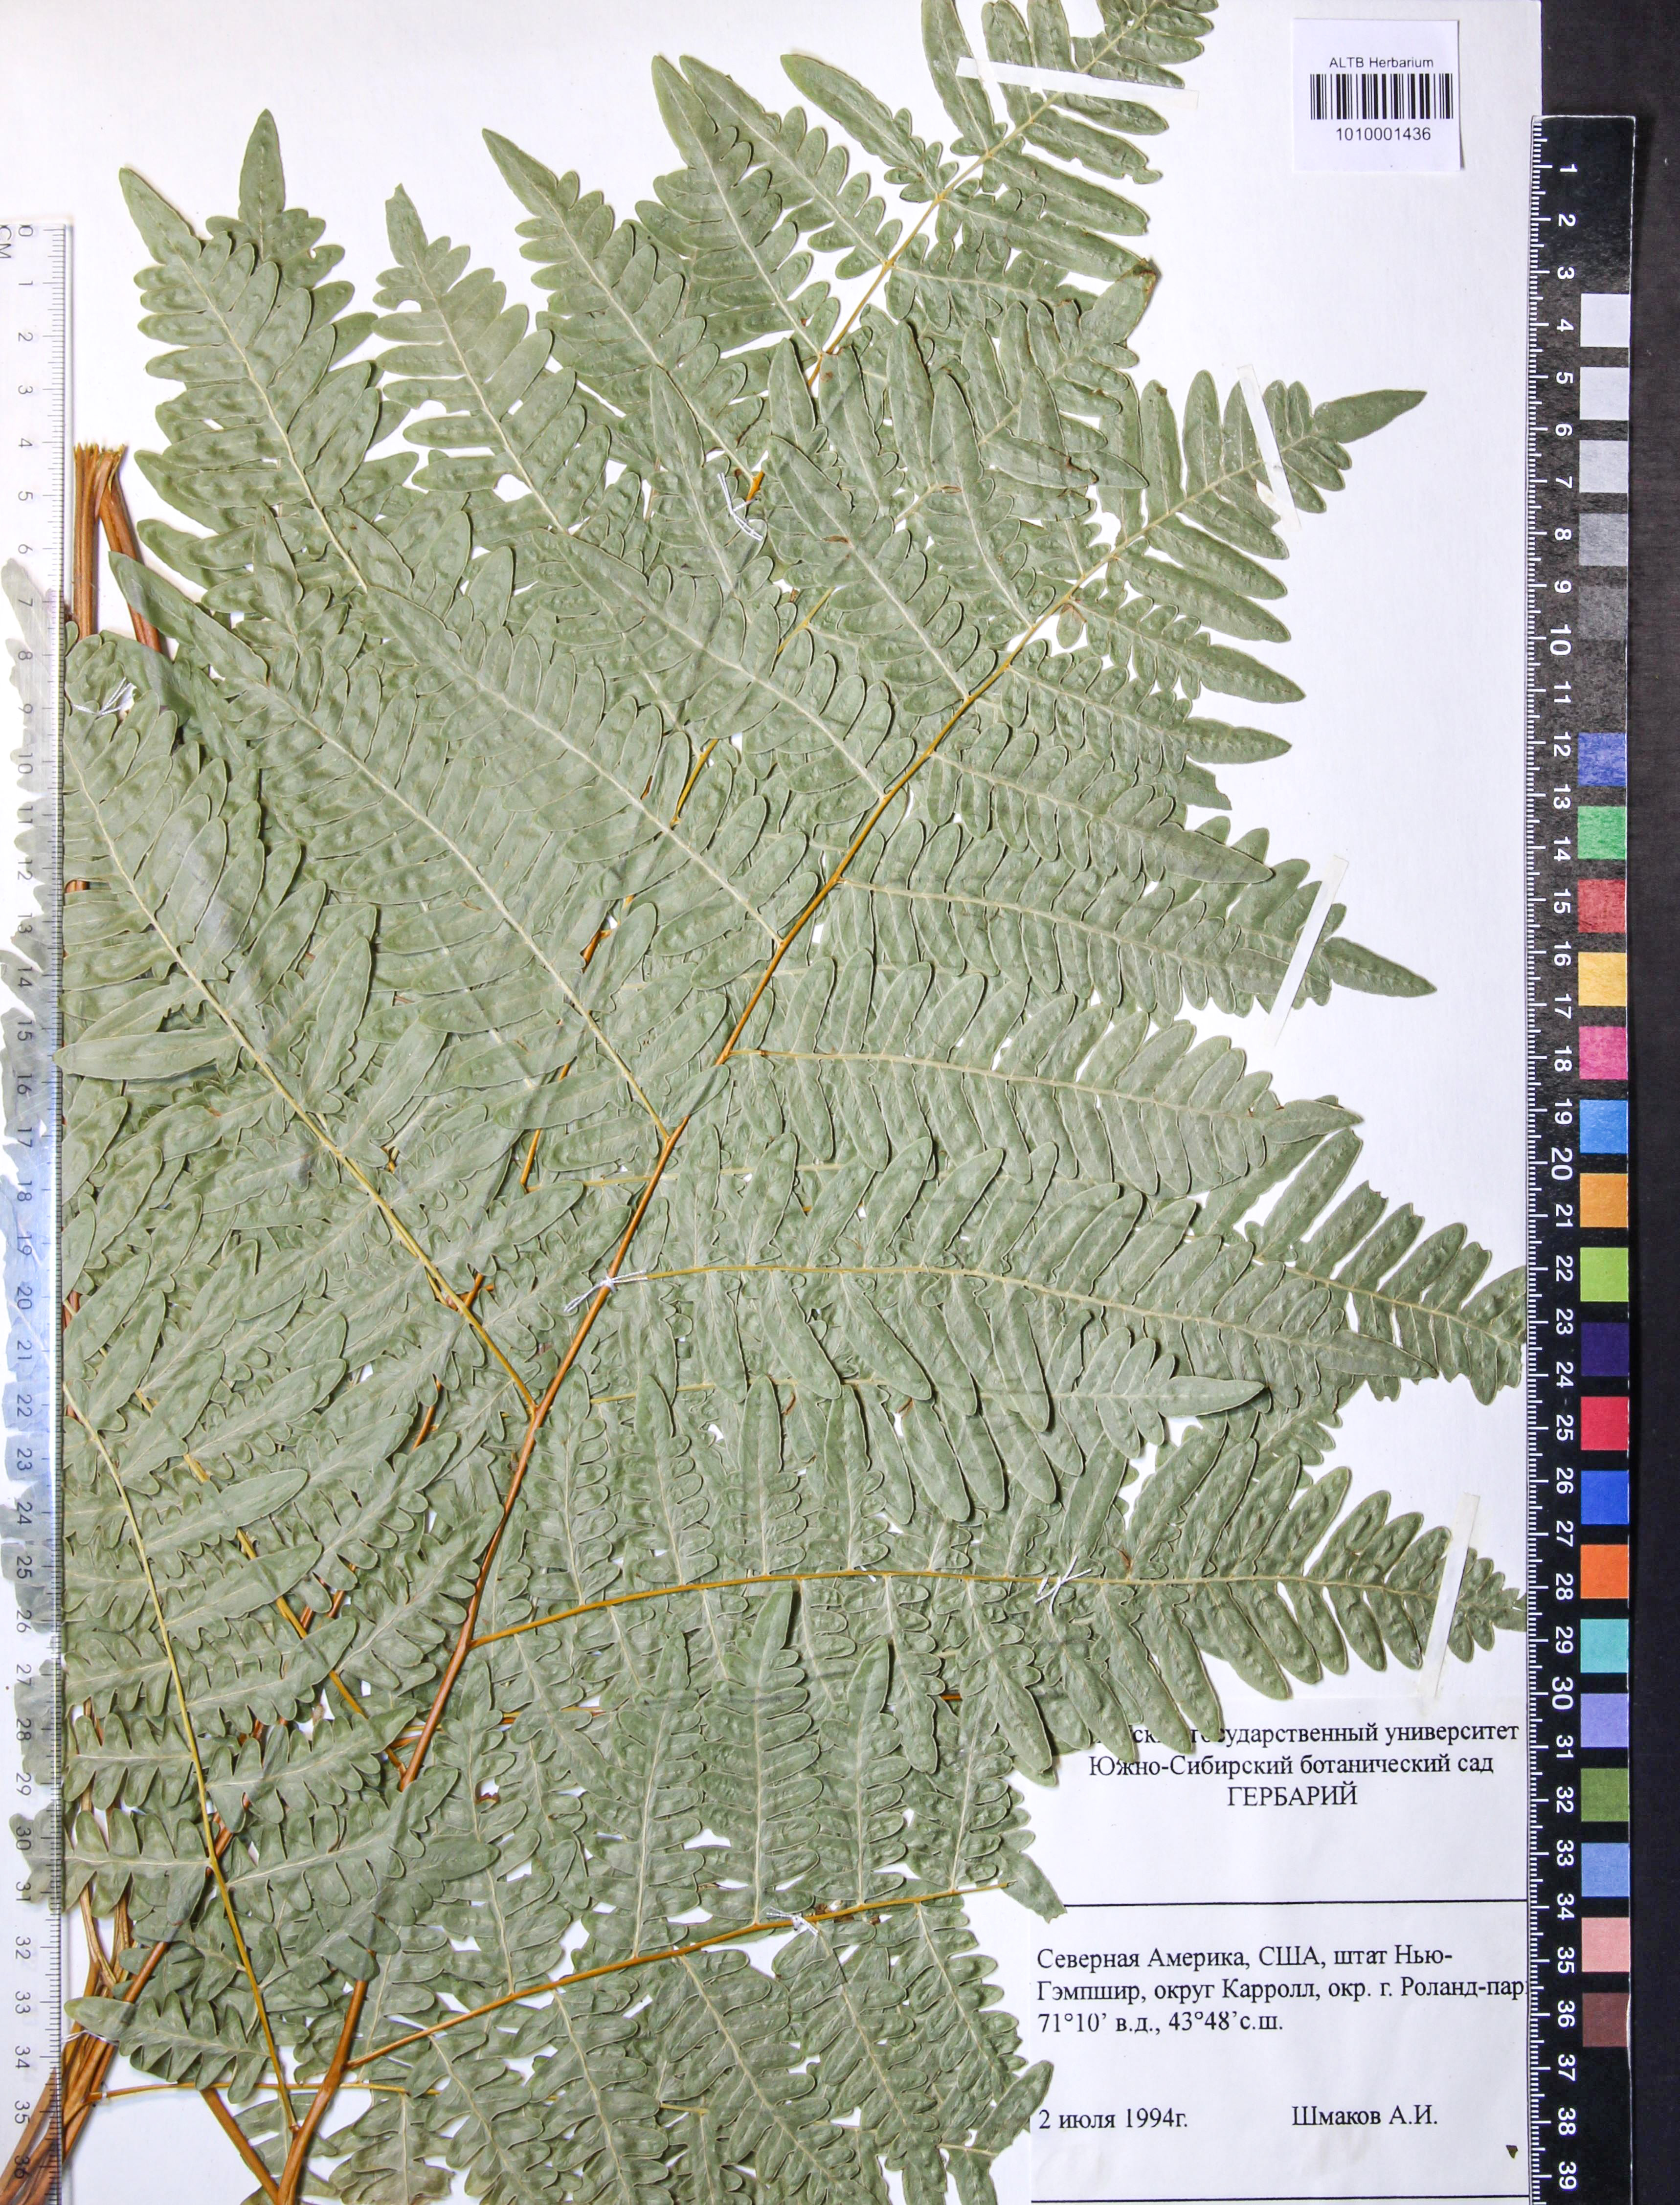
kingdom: Plantae
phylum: Tracheophyta
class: Polypodiopsida
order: Polypodiales
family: Dennstaedtiaceae
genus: Pteridium
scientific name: Pteridium aquilinum
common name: Bracken
